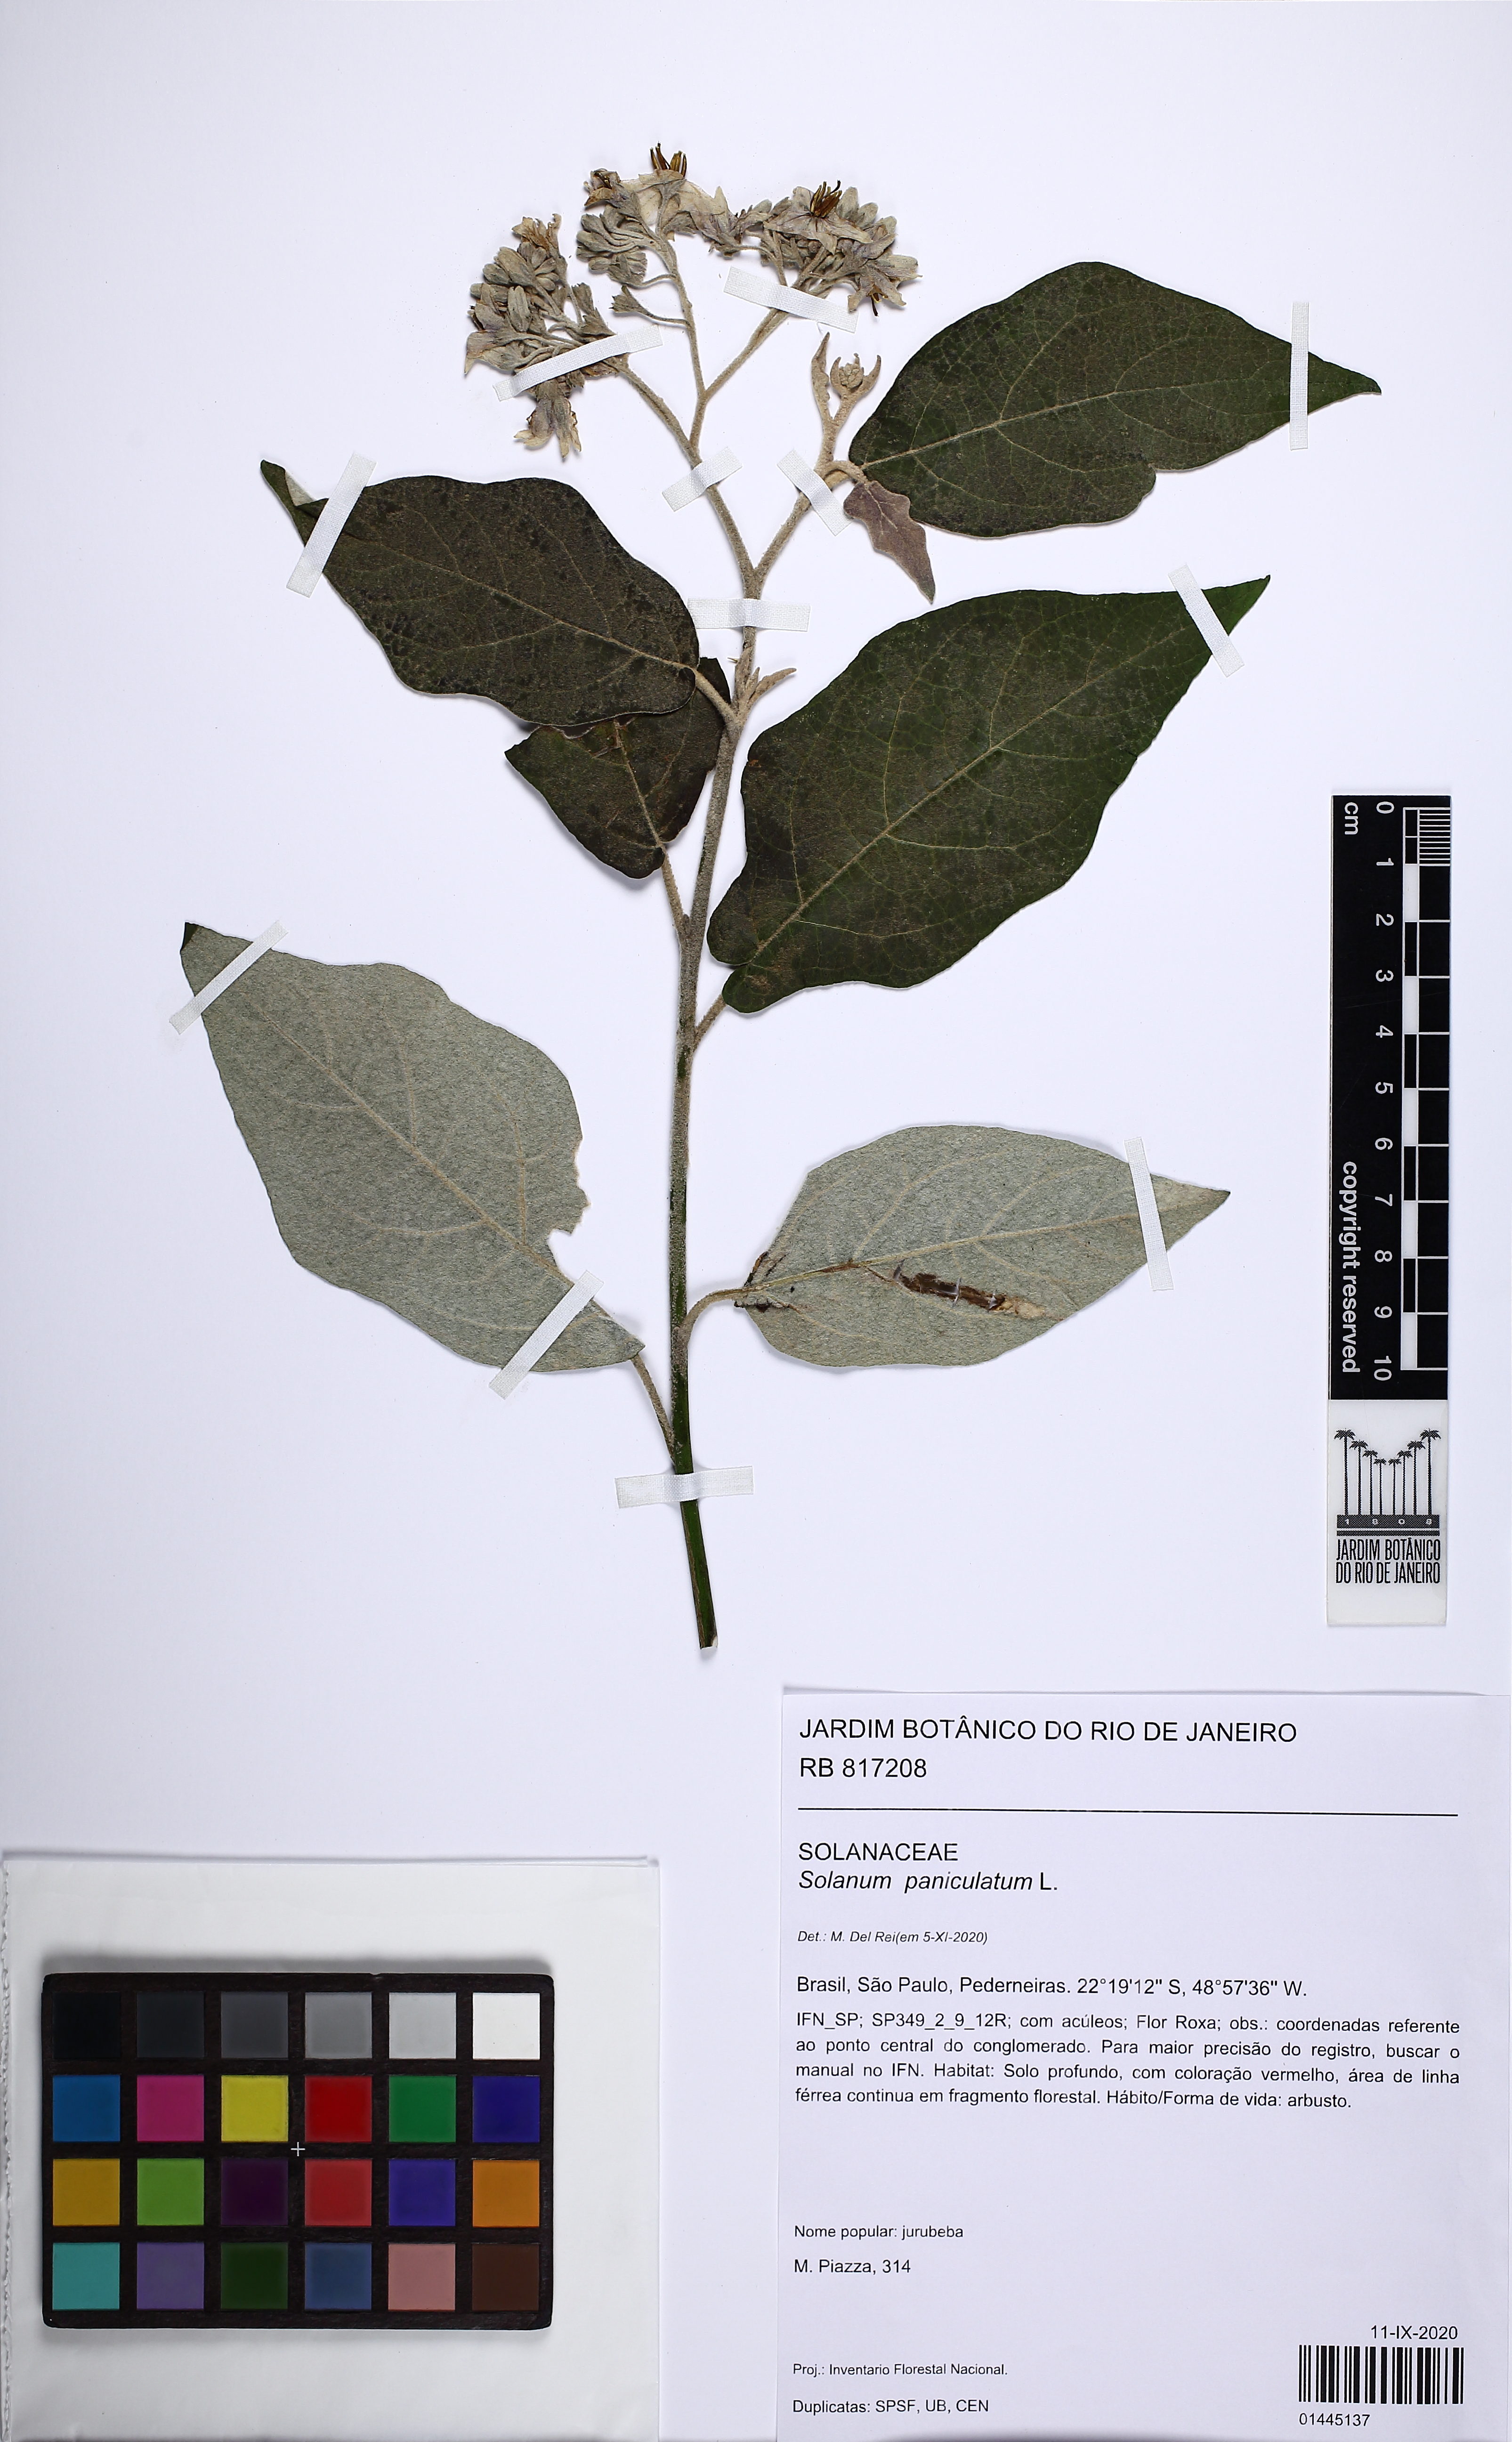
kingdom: Plantae
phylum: Tracheophyta
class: Magnoliopsida
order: Solanales
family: Solanaceae
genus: Solanum
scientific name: Solanum paniculatum
